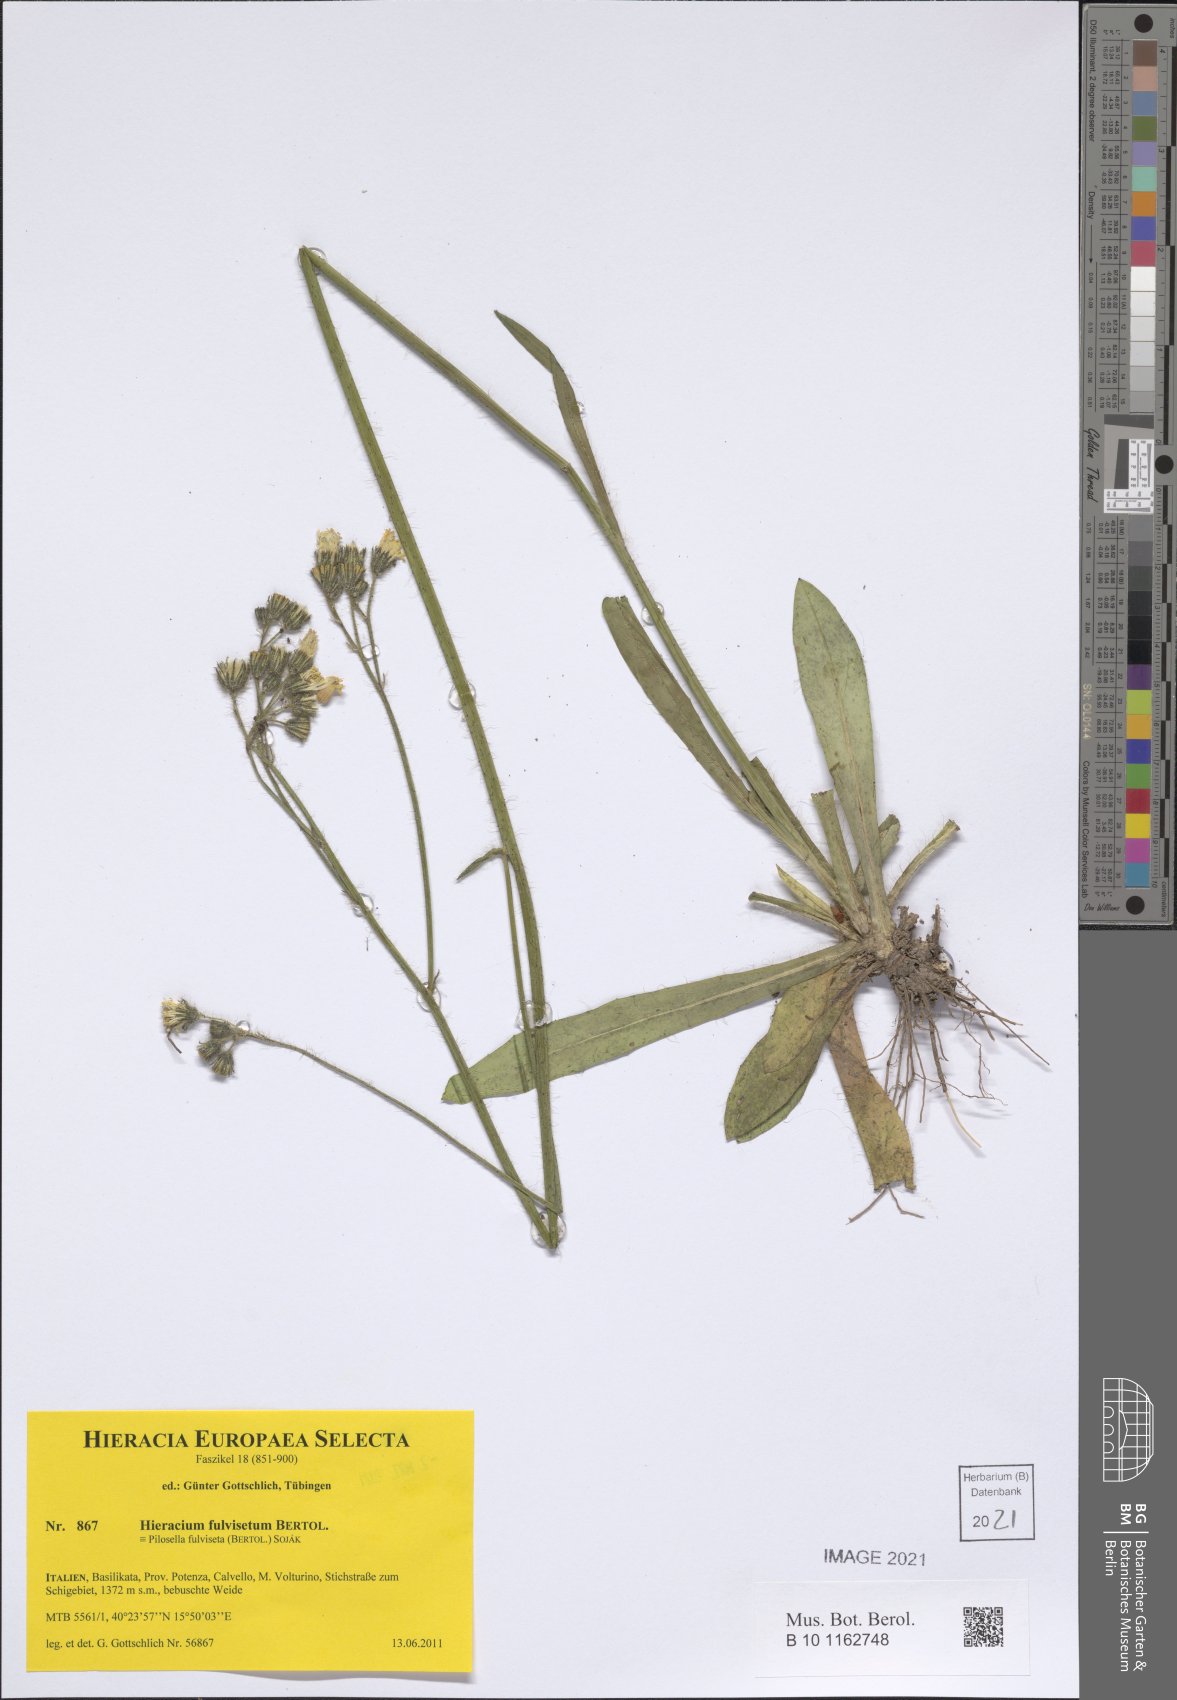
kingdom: Plantae
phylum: Tracheophyta
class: Magnoliopsida
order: Asterales
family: Asteraceae
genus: Pilosella
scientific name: Pilosella fulviseta
